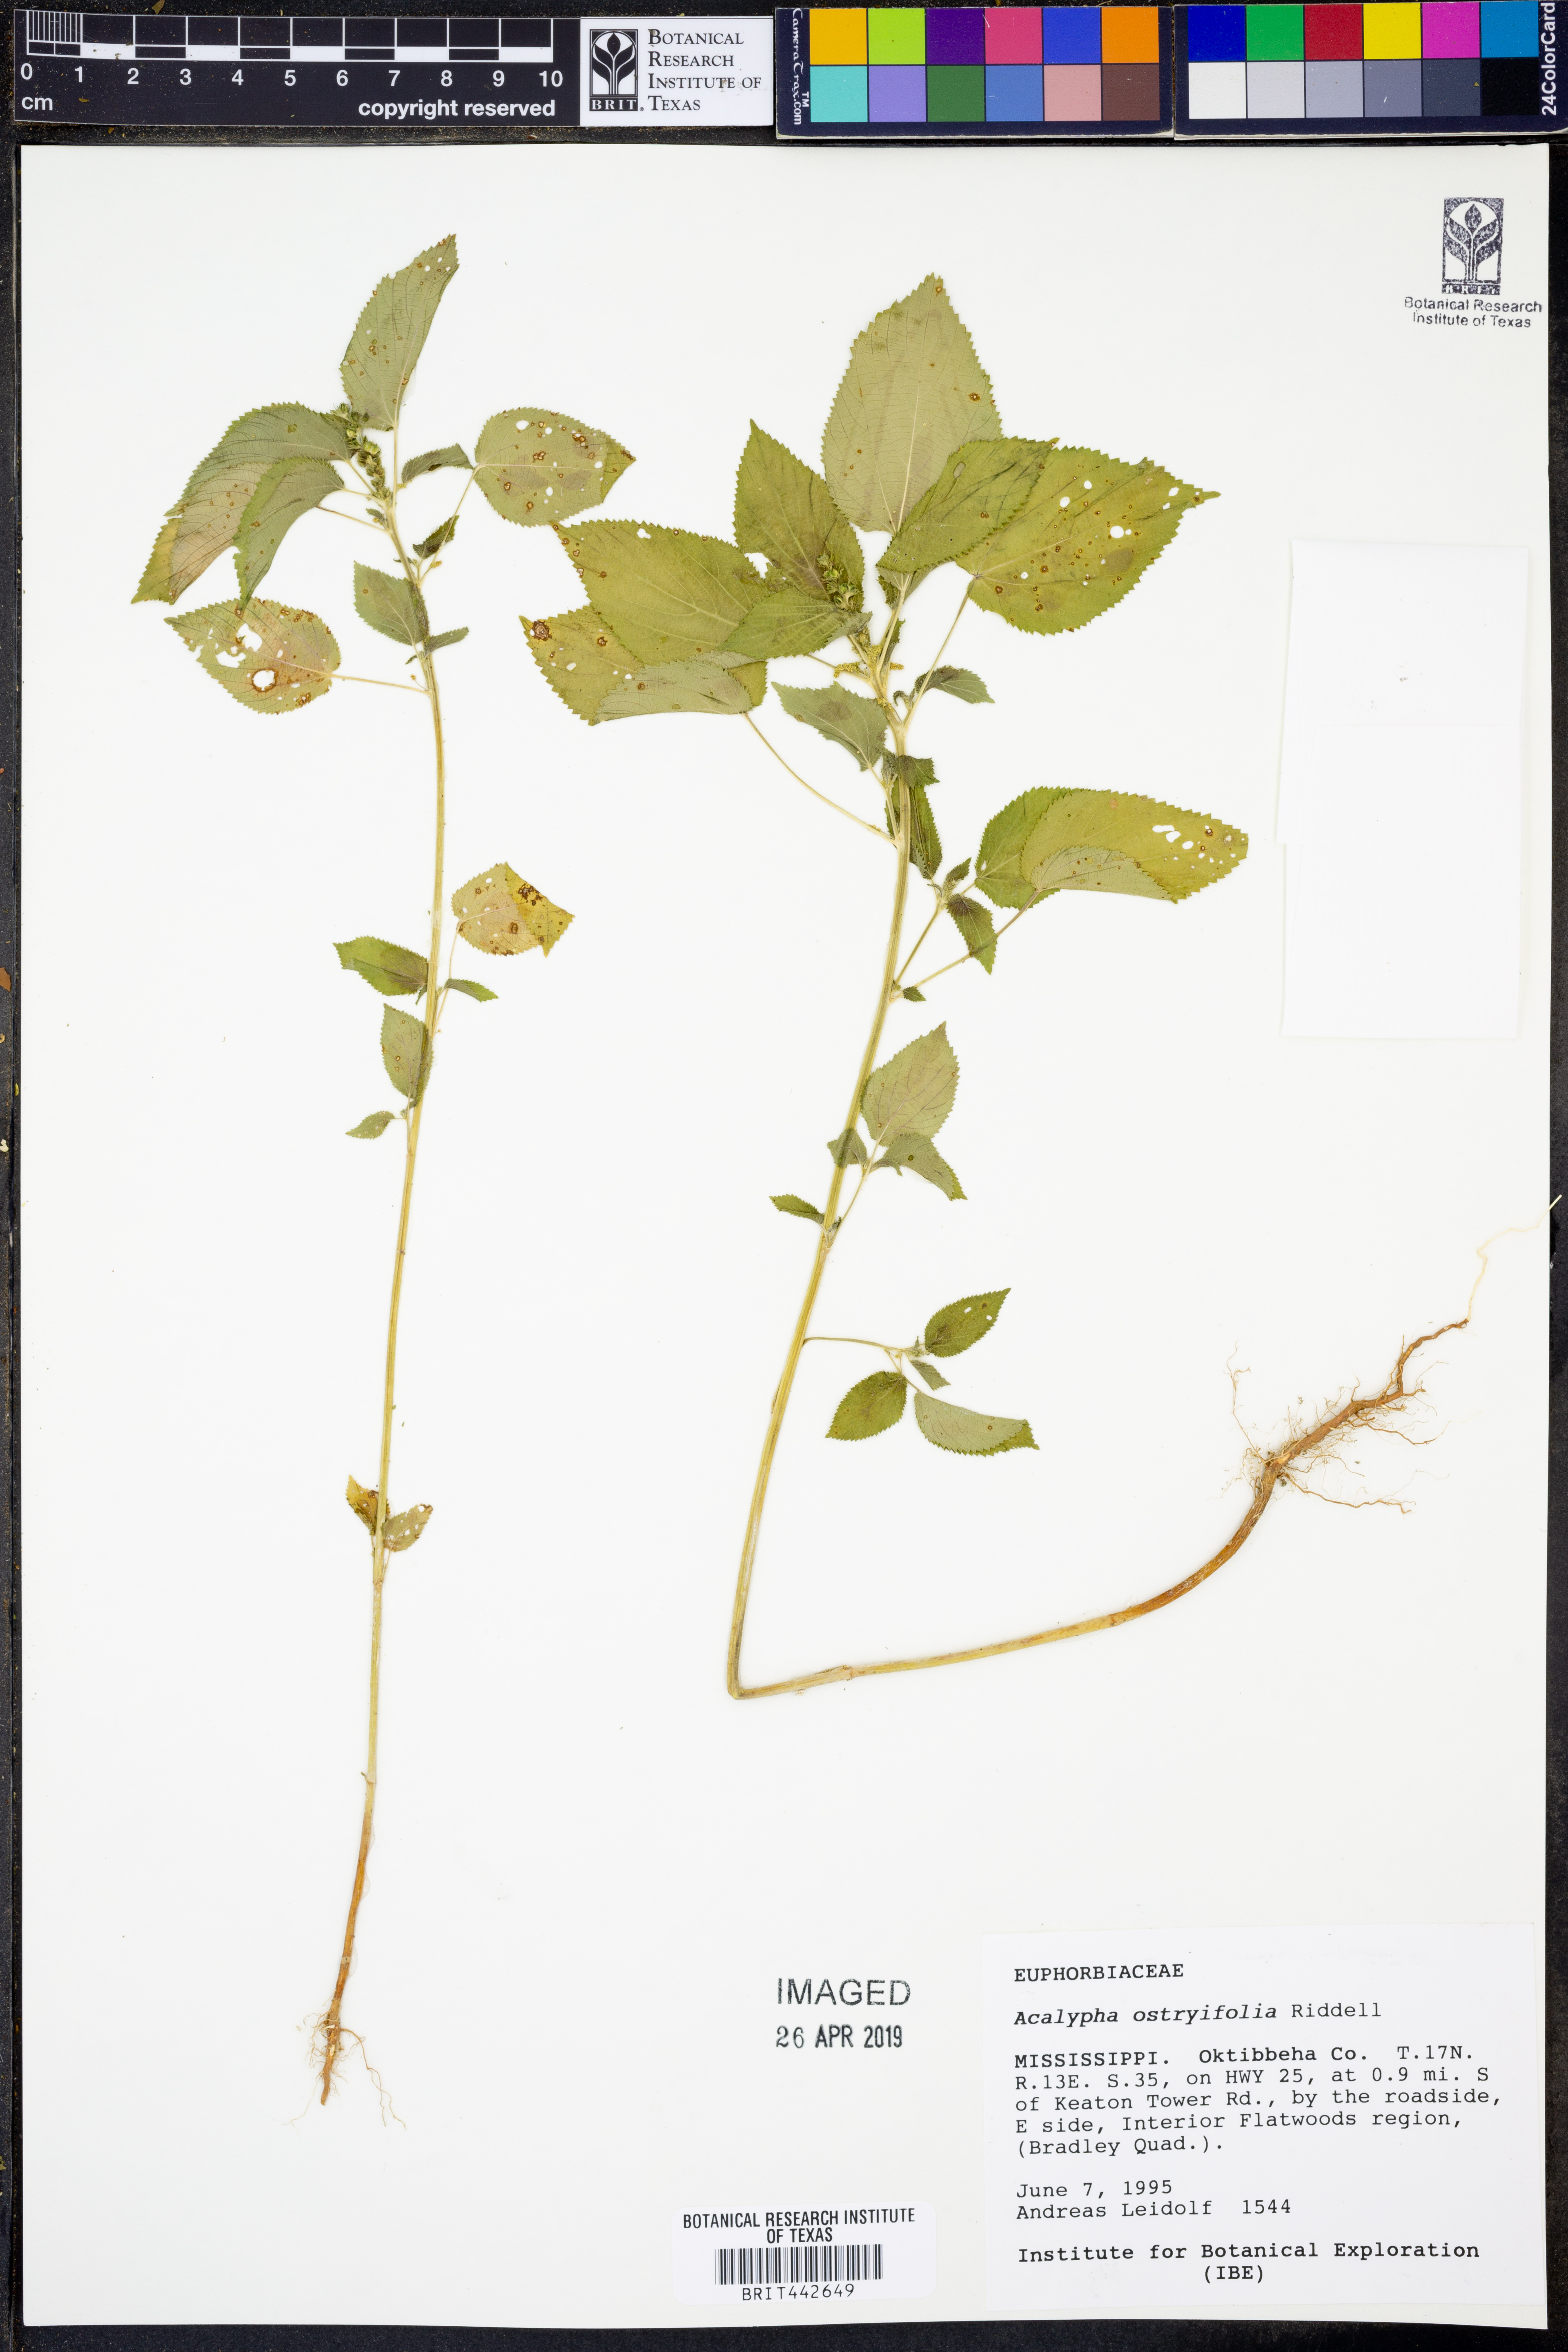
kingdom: Plantae
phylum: Tracheophyta
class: Magnoliopsida
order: Malpighiales
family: Euphorbiaceae
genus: Acalypha
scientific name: Acalypha persimilis
